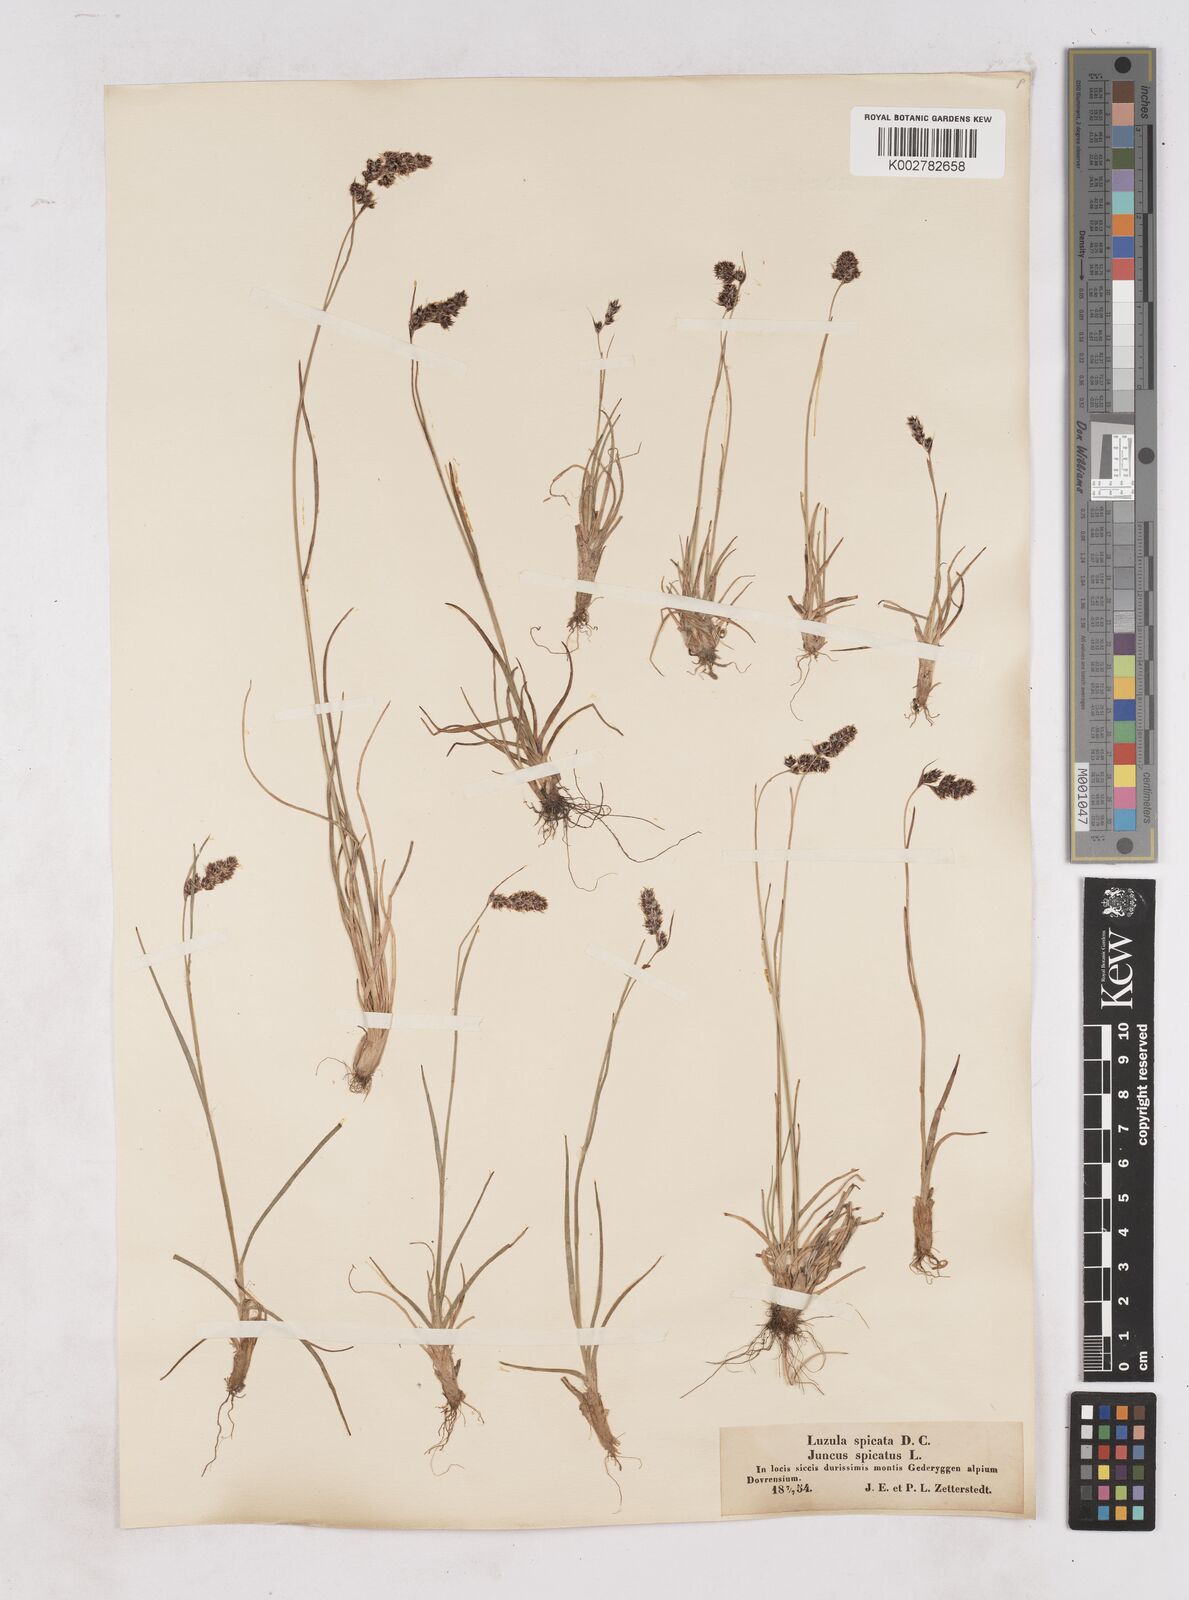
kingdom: Plantae
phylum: Tracheophyta
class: Liliopsida
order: Poales
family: Juncaceae
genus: Luzula
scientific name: Luzula spicata
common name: Spiked wood-rush
